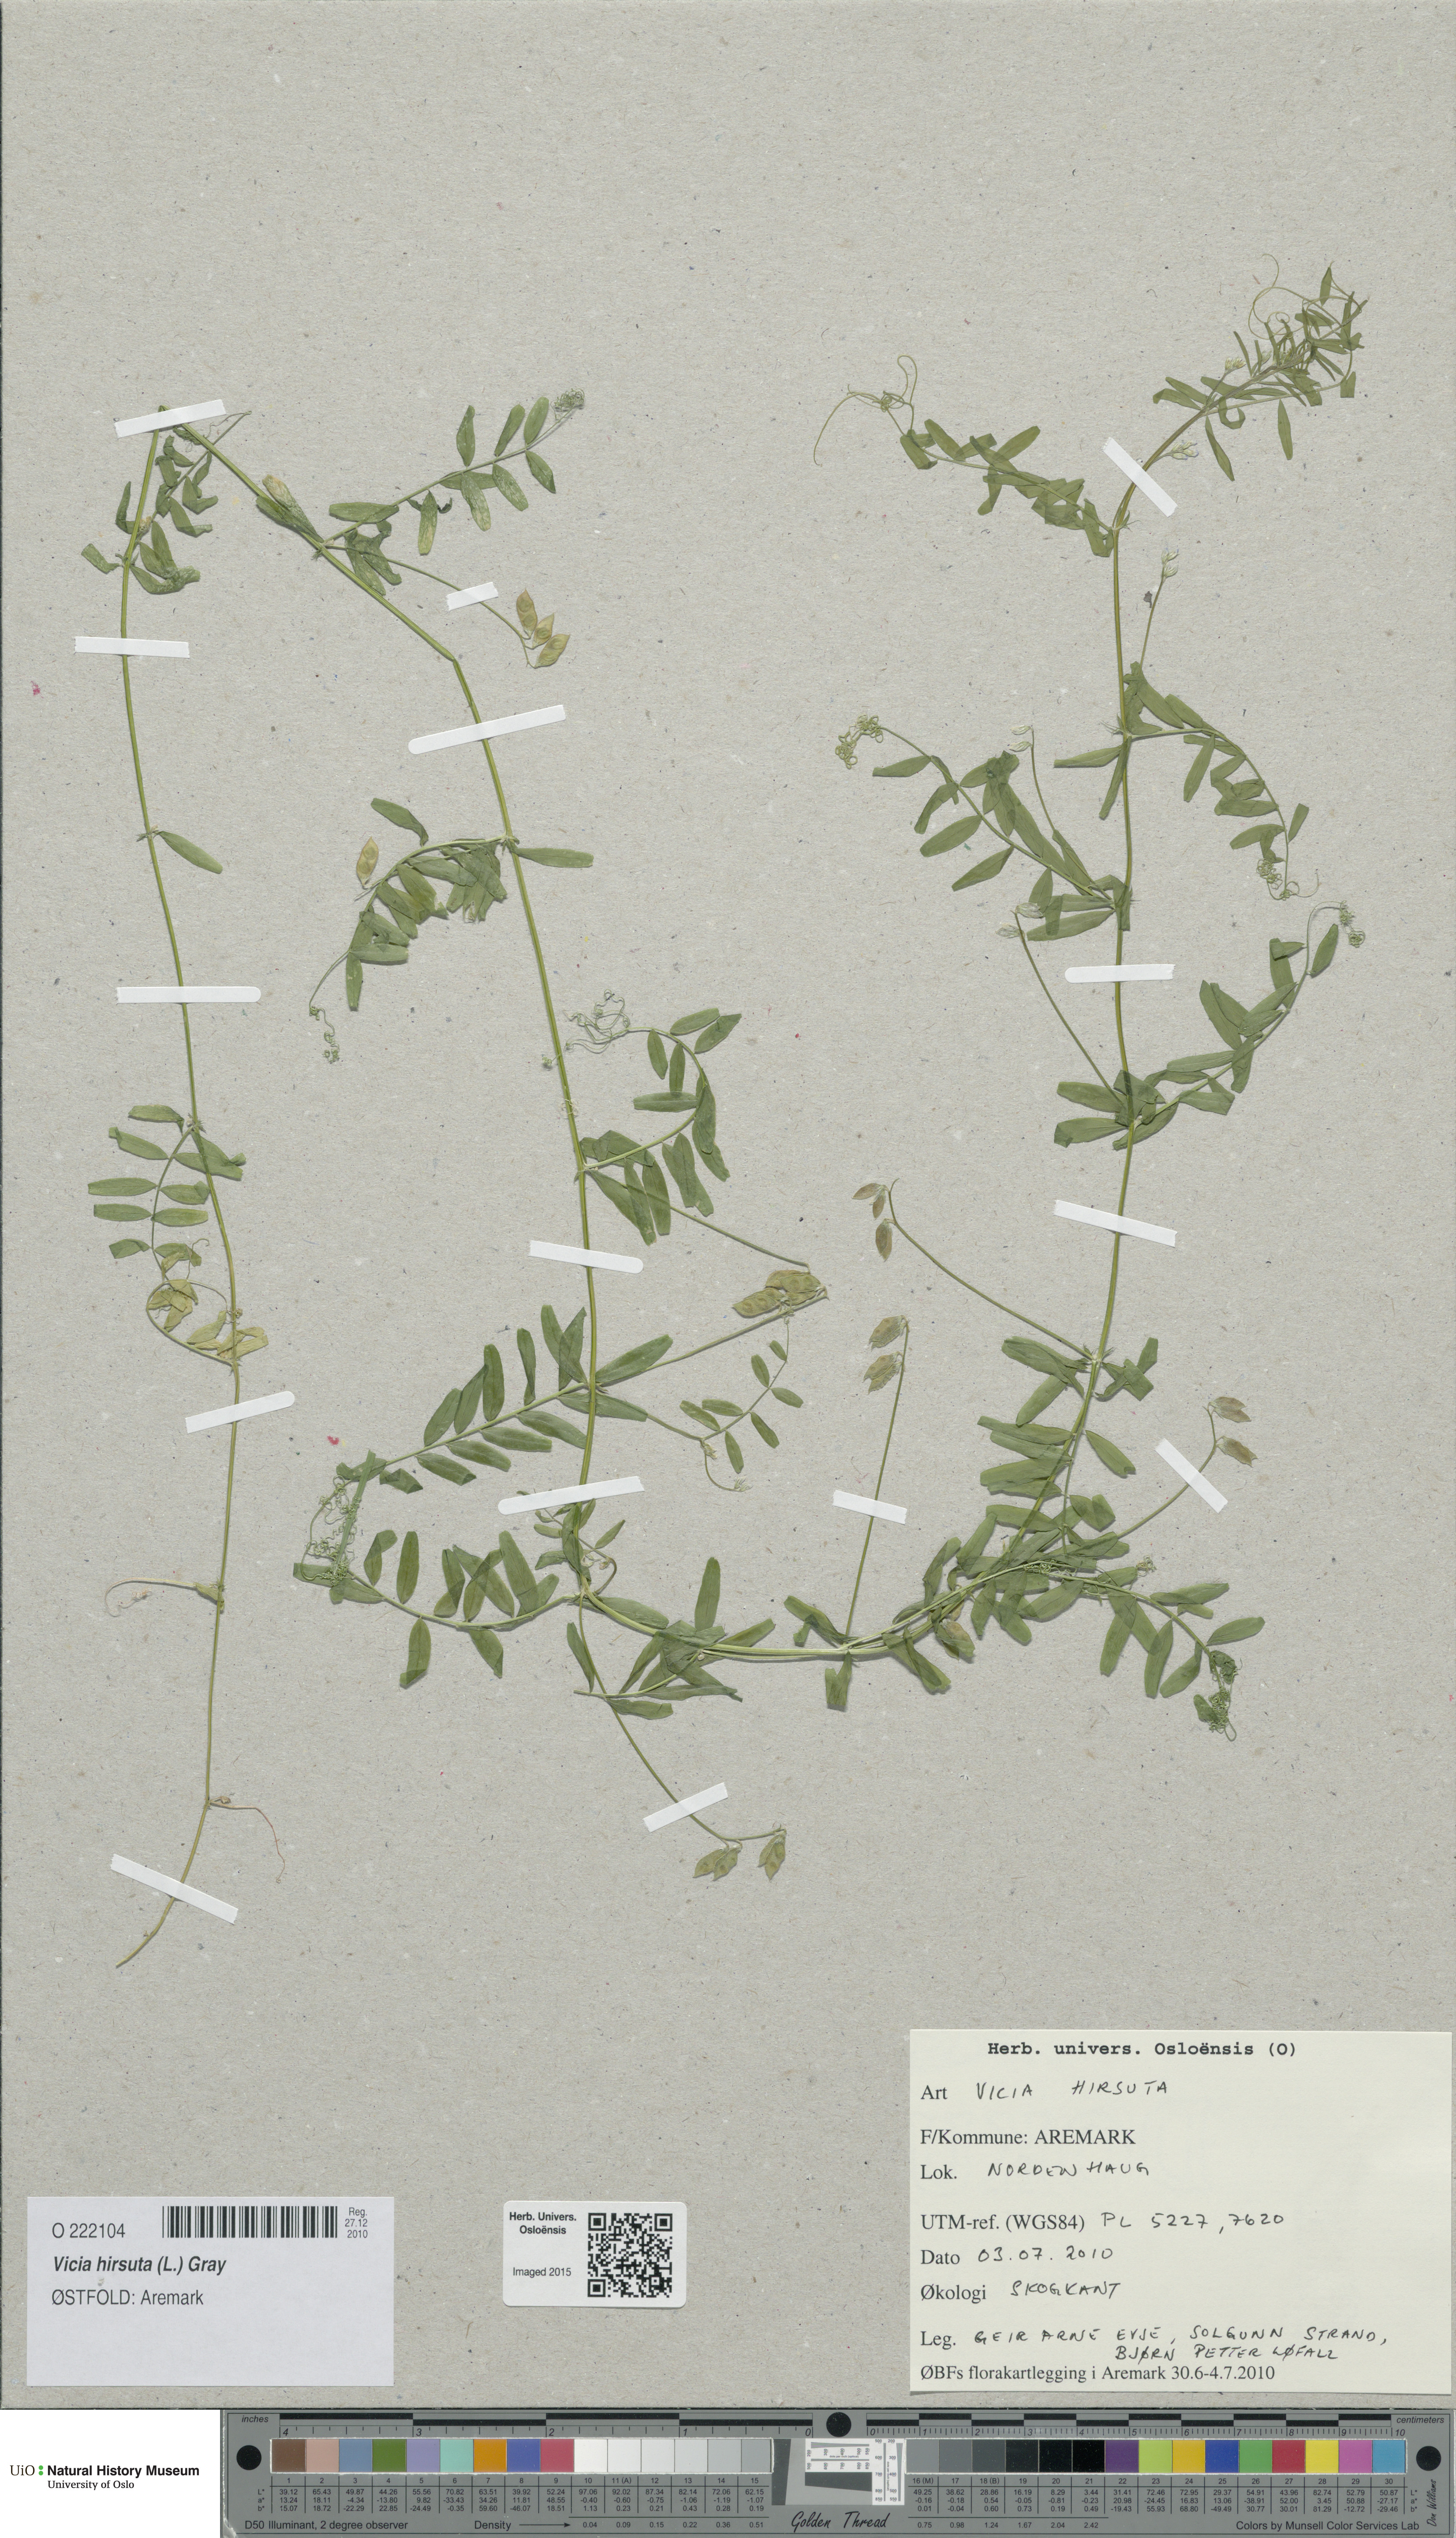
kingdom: Plantae
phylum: Tracheophyta
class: Magnoliopsida
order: Fabales
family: Fabaceae
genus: Vicia
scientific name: Vicia hirsuta
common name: Tiny vetch
